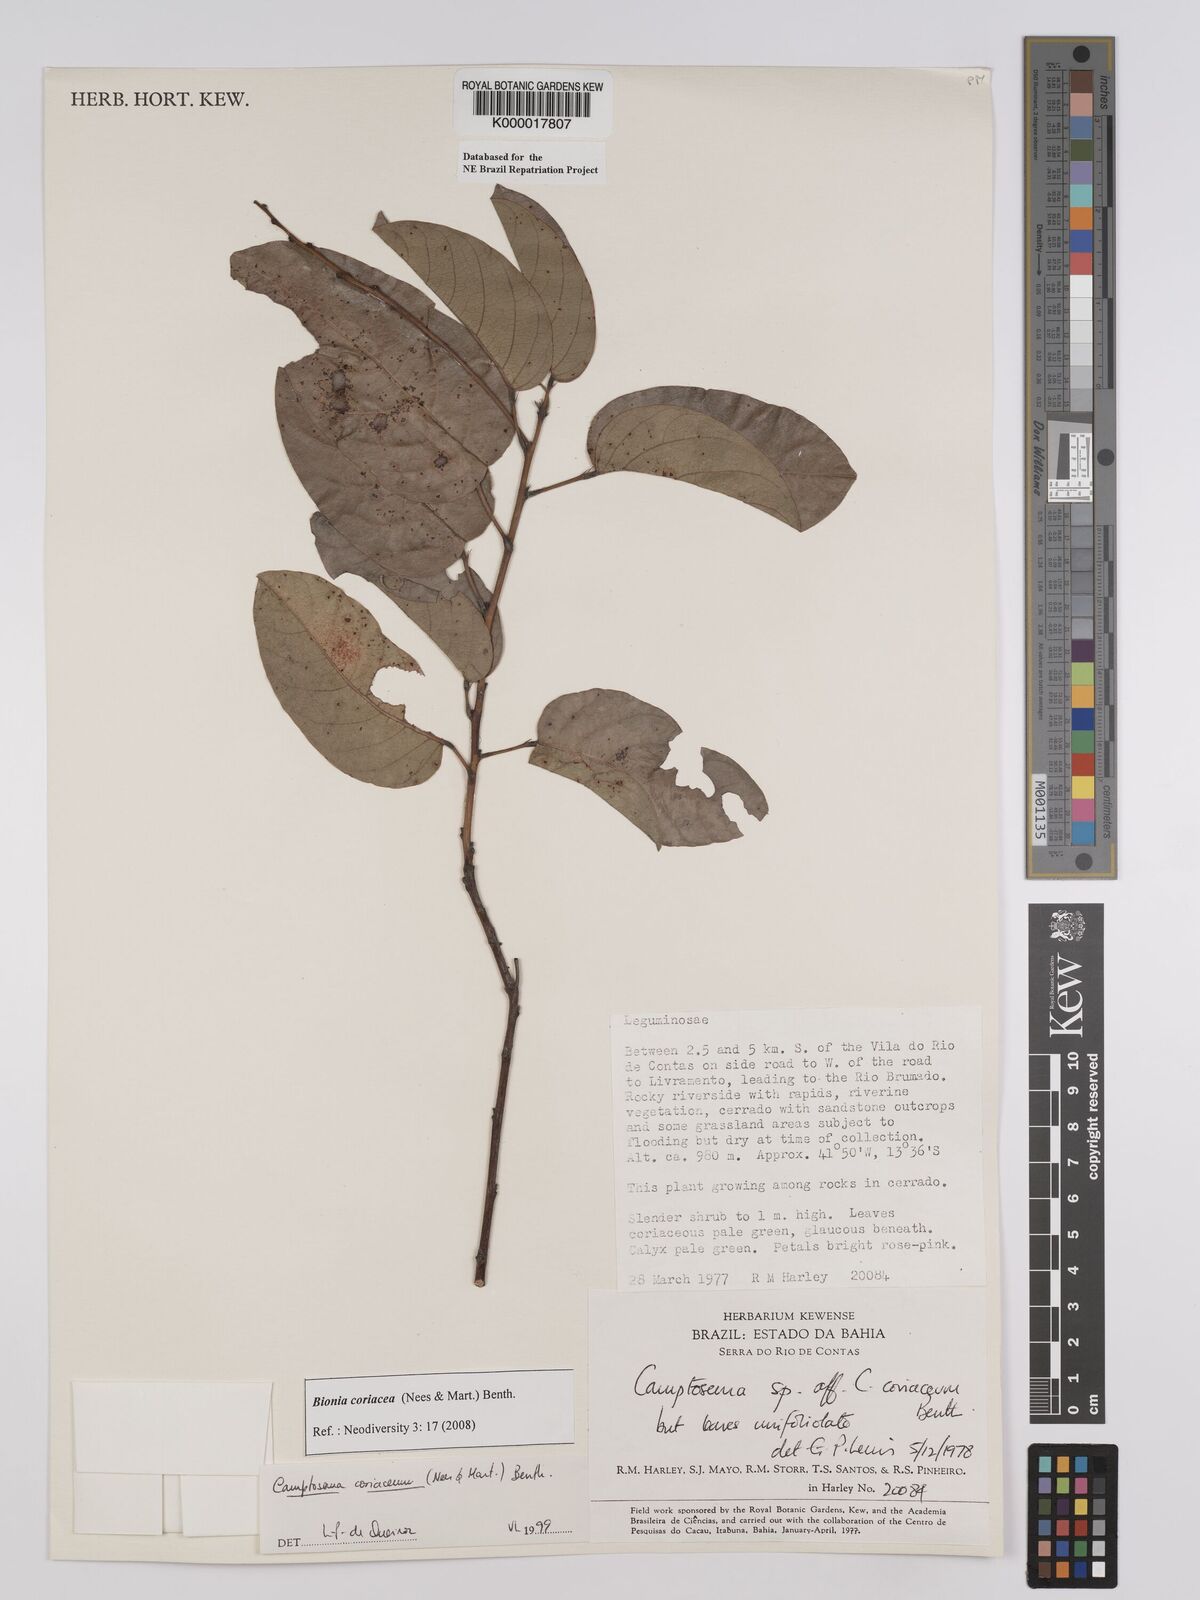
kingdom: Plantae
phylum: Tracheophyta
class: Magnoliopsida
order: Fabales
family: Fabaceae
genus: Camptosema
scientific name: Camptosema coriaceum
